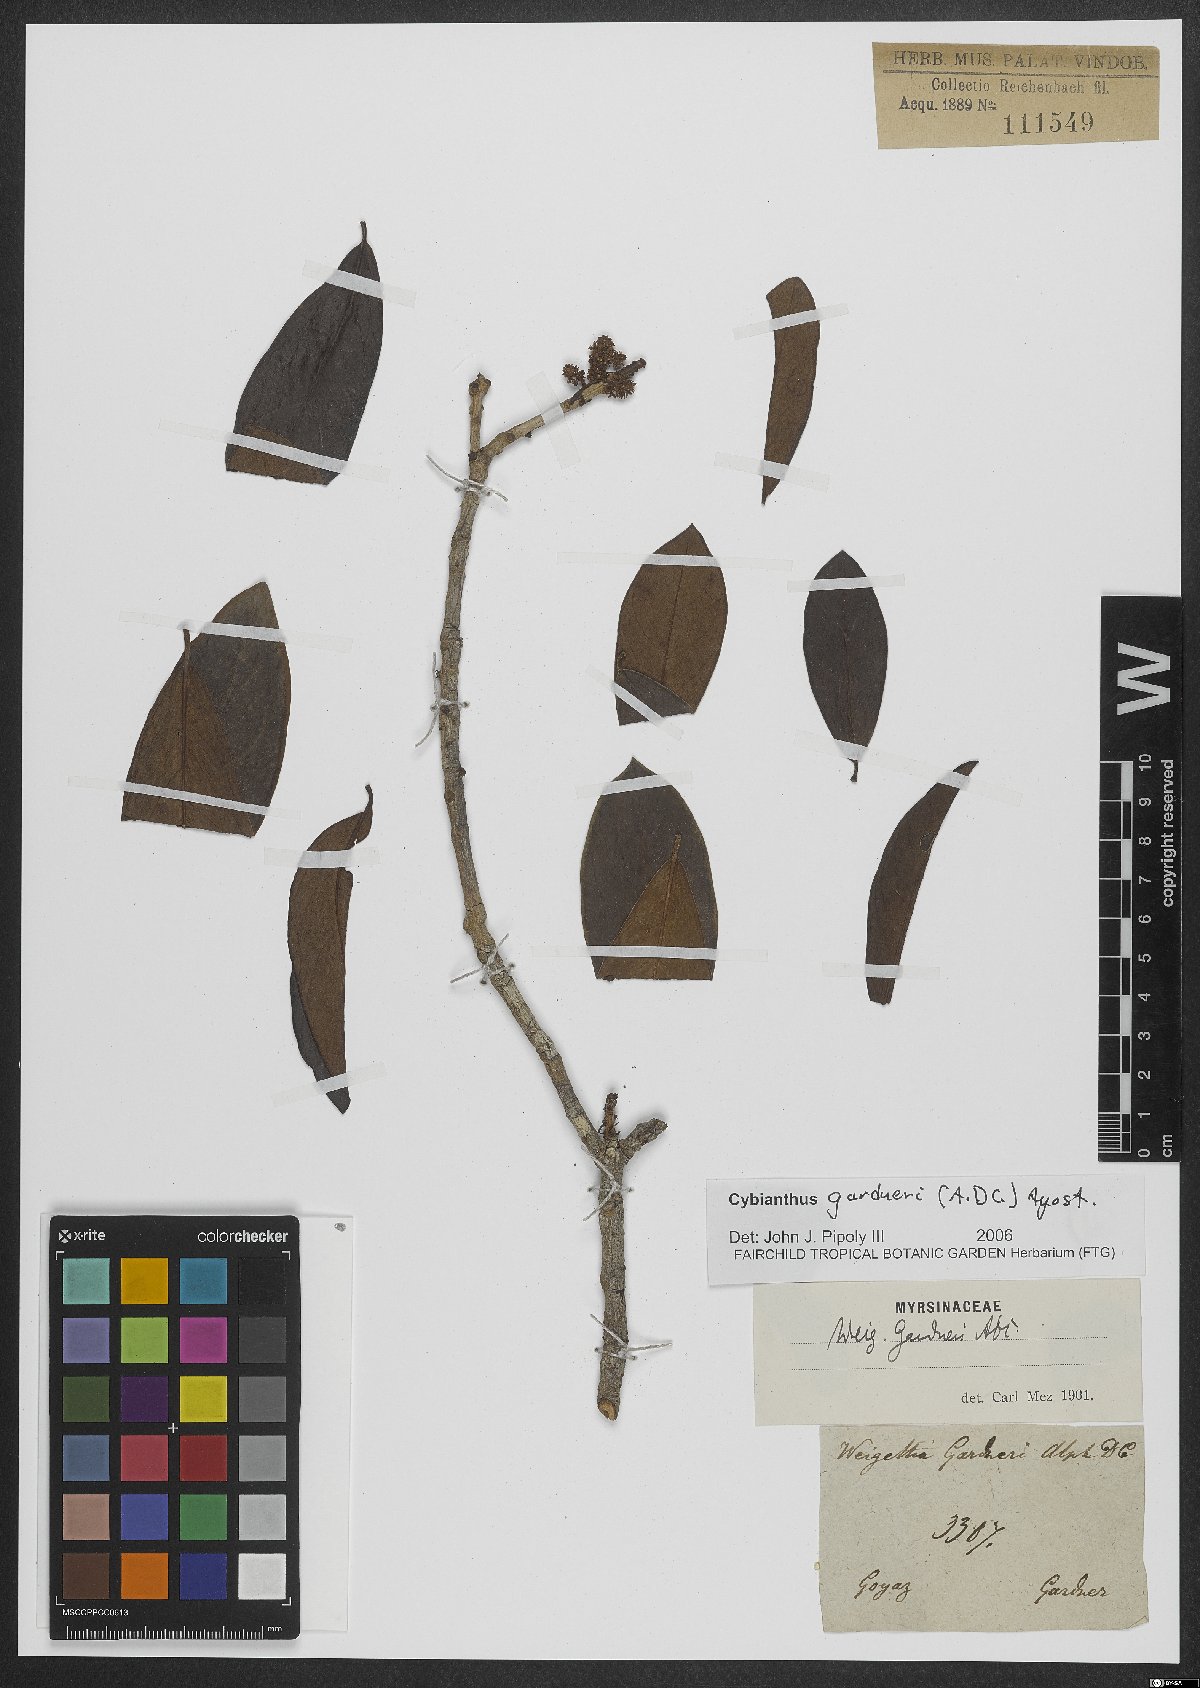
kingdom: Plantae
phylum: Tracheophyta
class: Magnoliopsida
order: Ericales
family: Primulaceae
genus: Cybianthus
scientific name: Cybianthus gardneri
